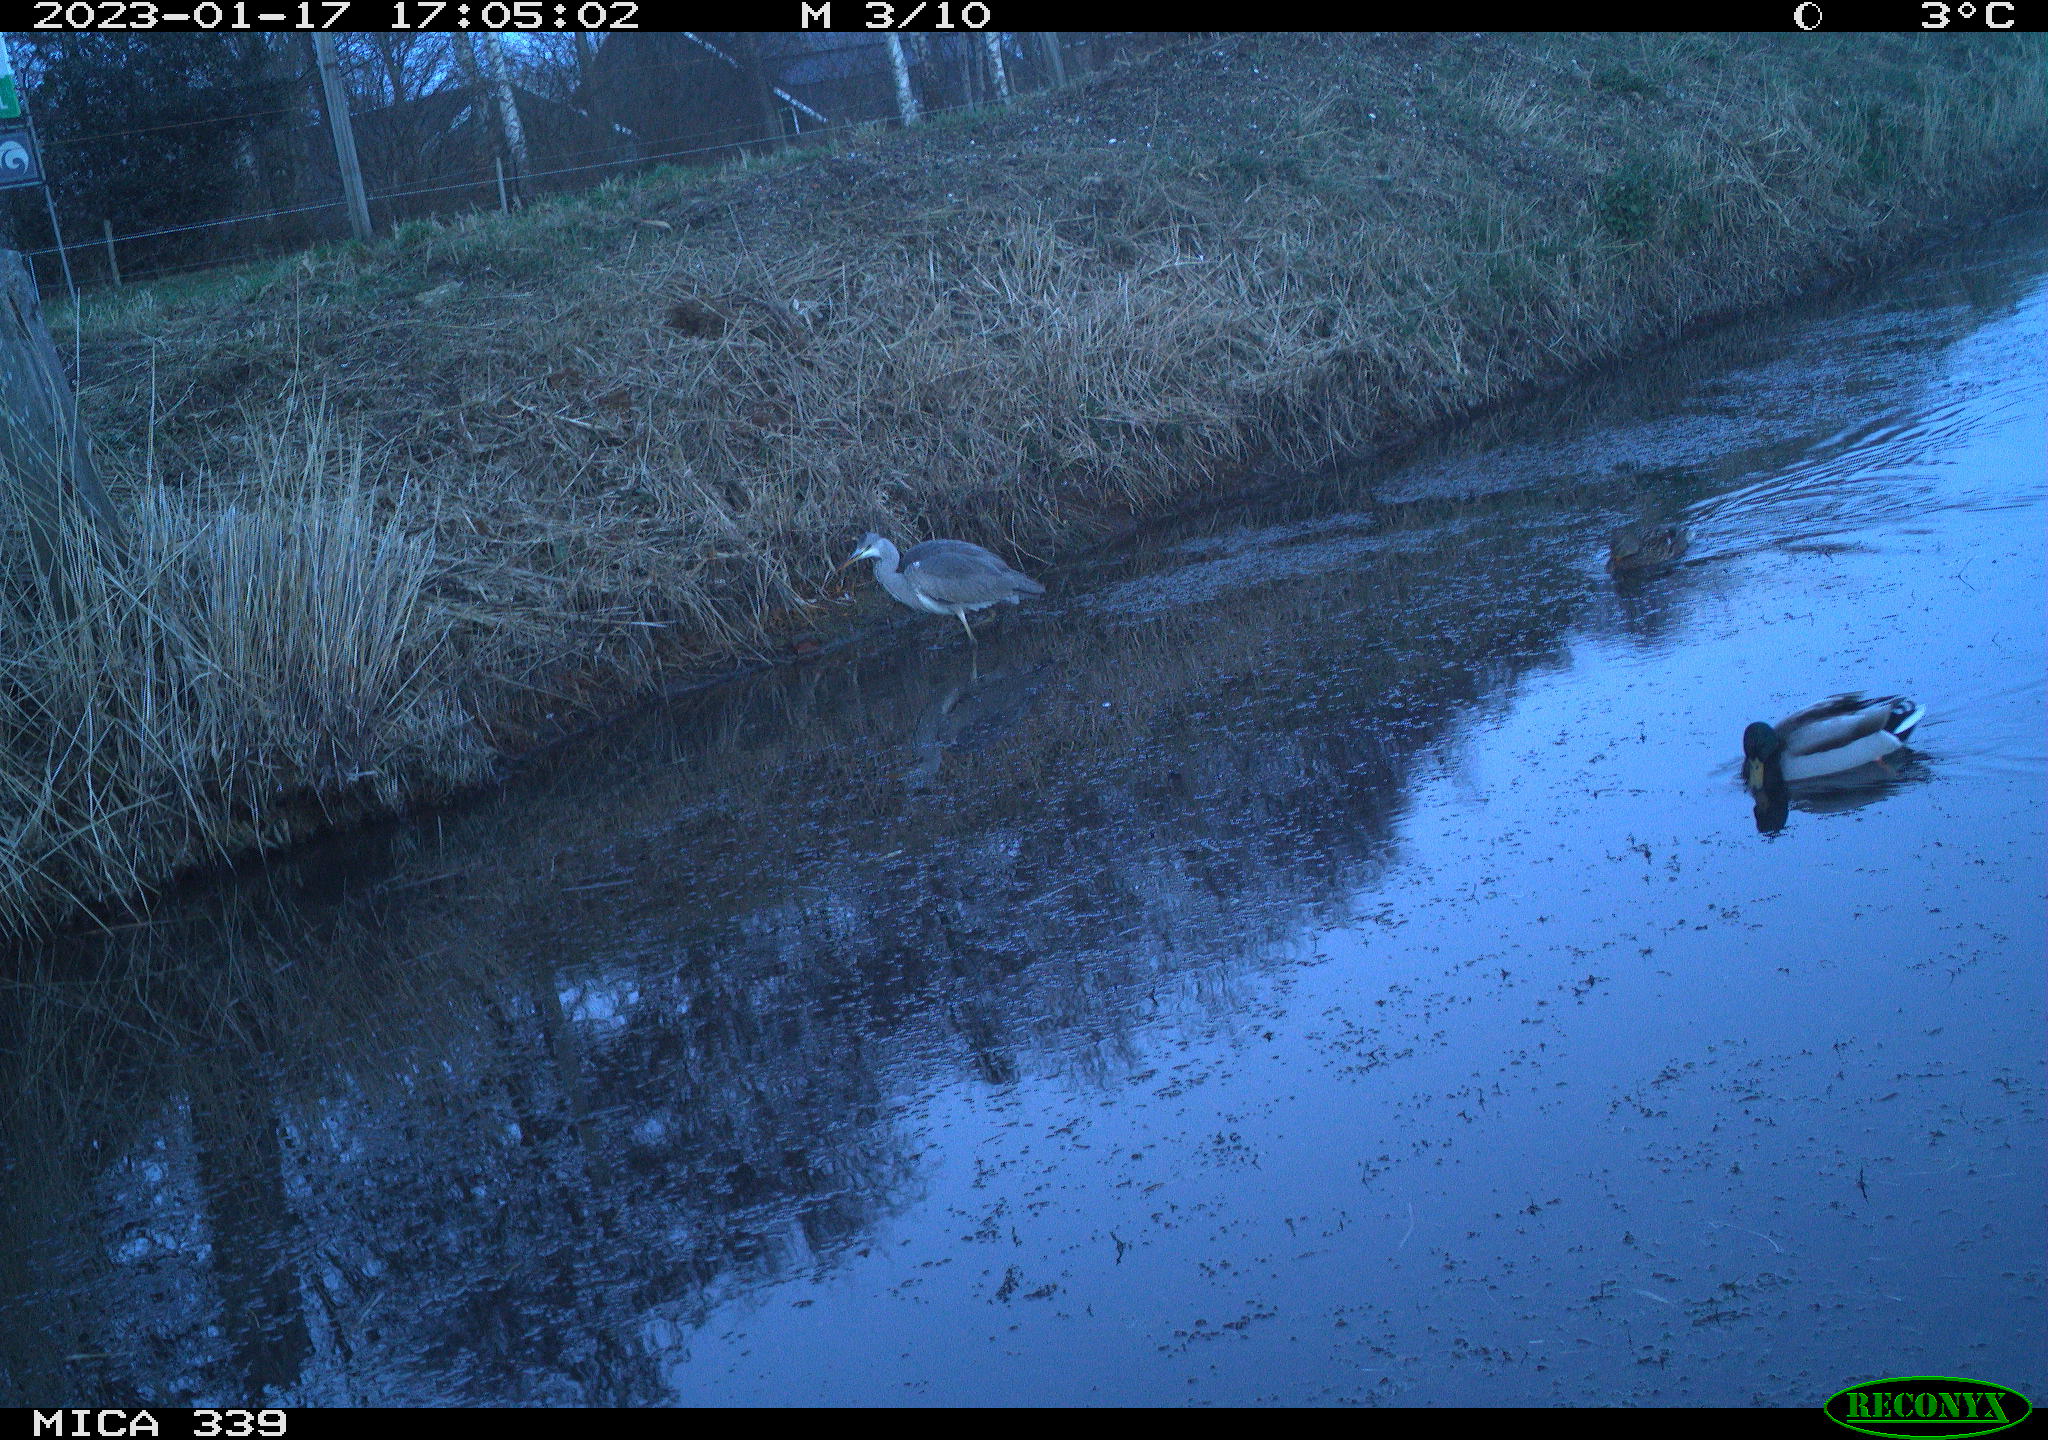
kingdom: Animalia
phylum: Chordata
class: Aves
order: Pelecaniformes
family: Ardeidae
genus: Ardea
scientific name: Ardea cinerea
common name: Grey heron
